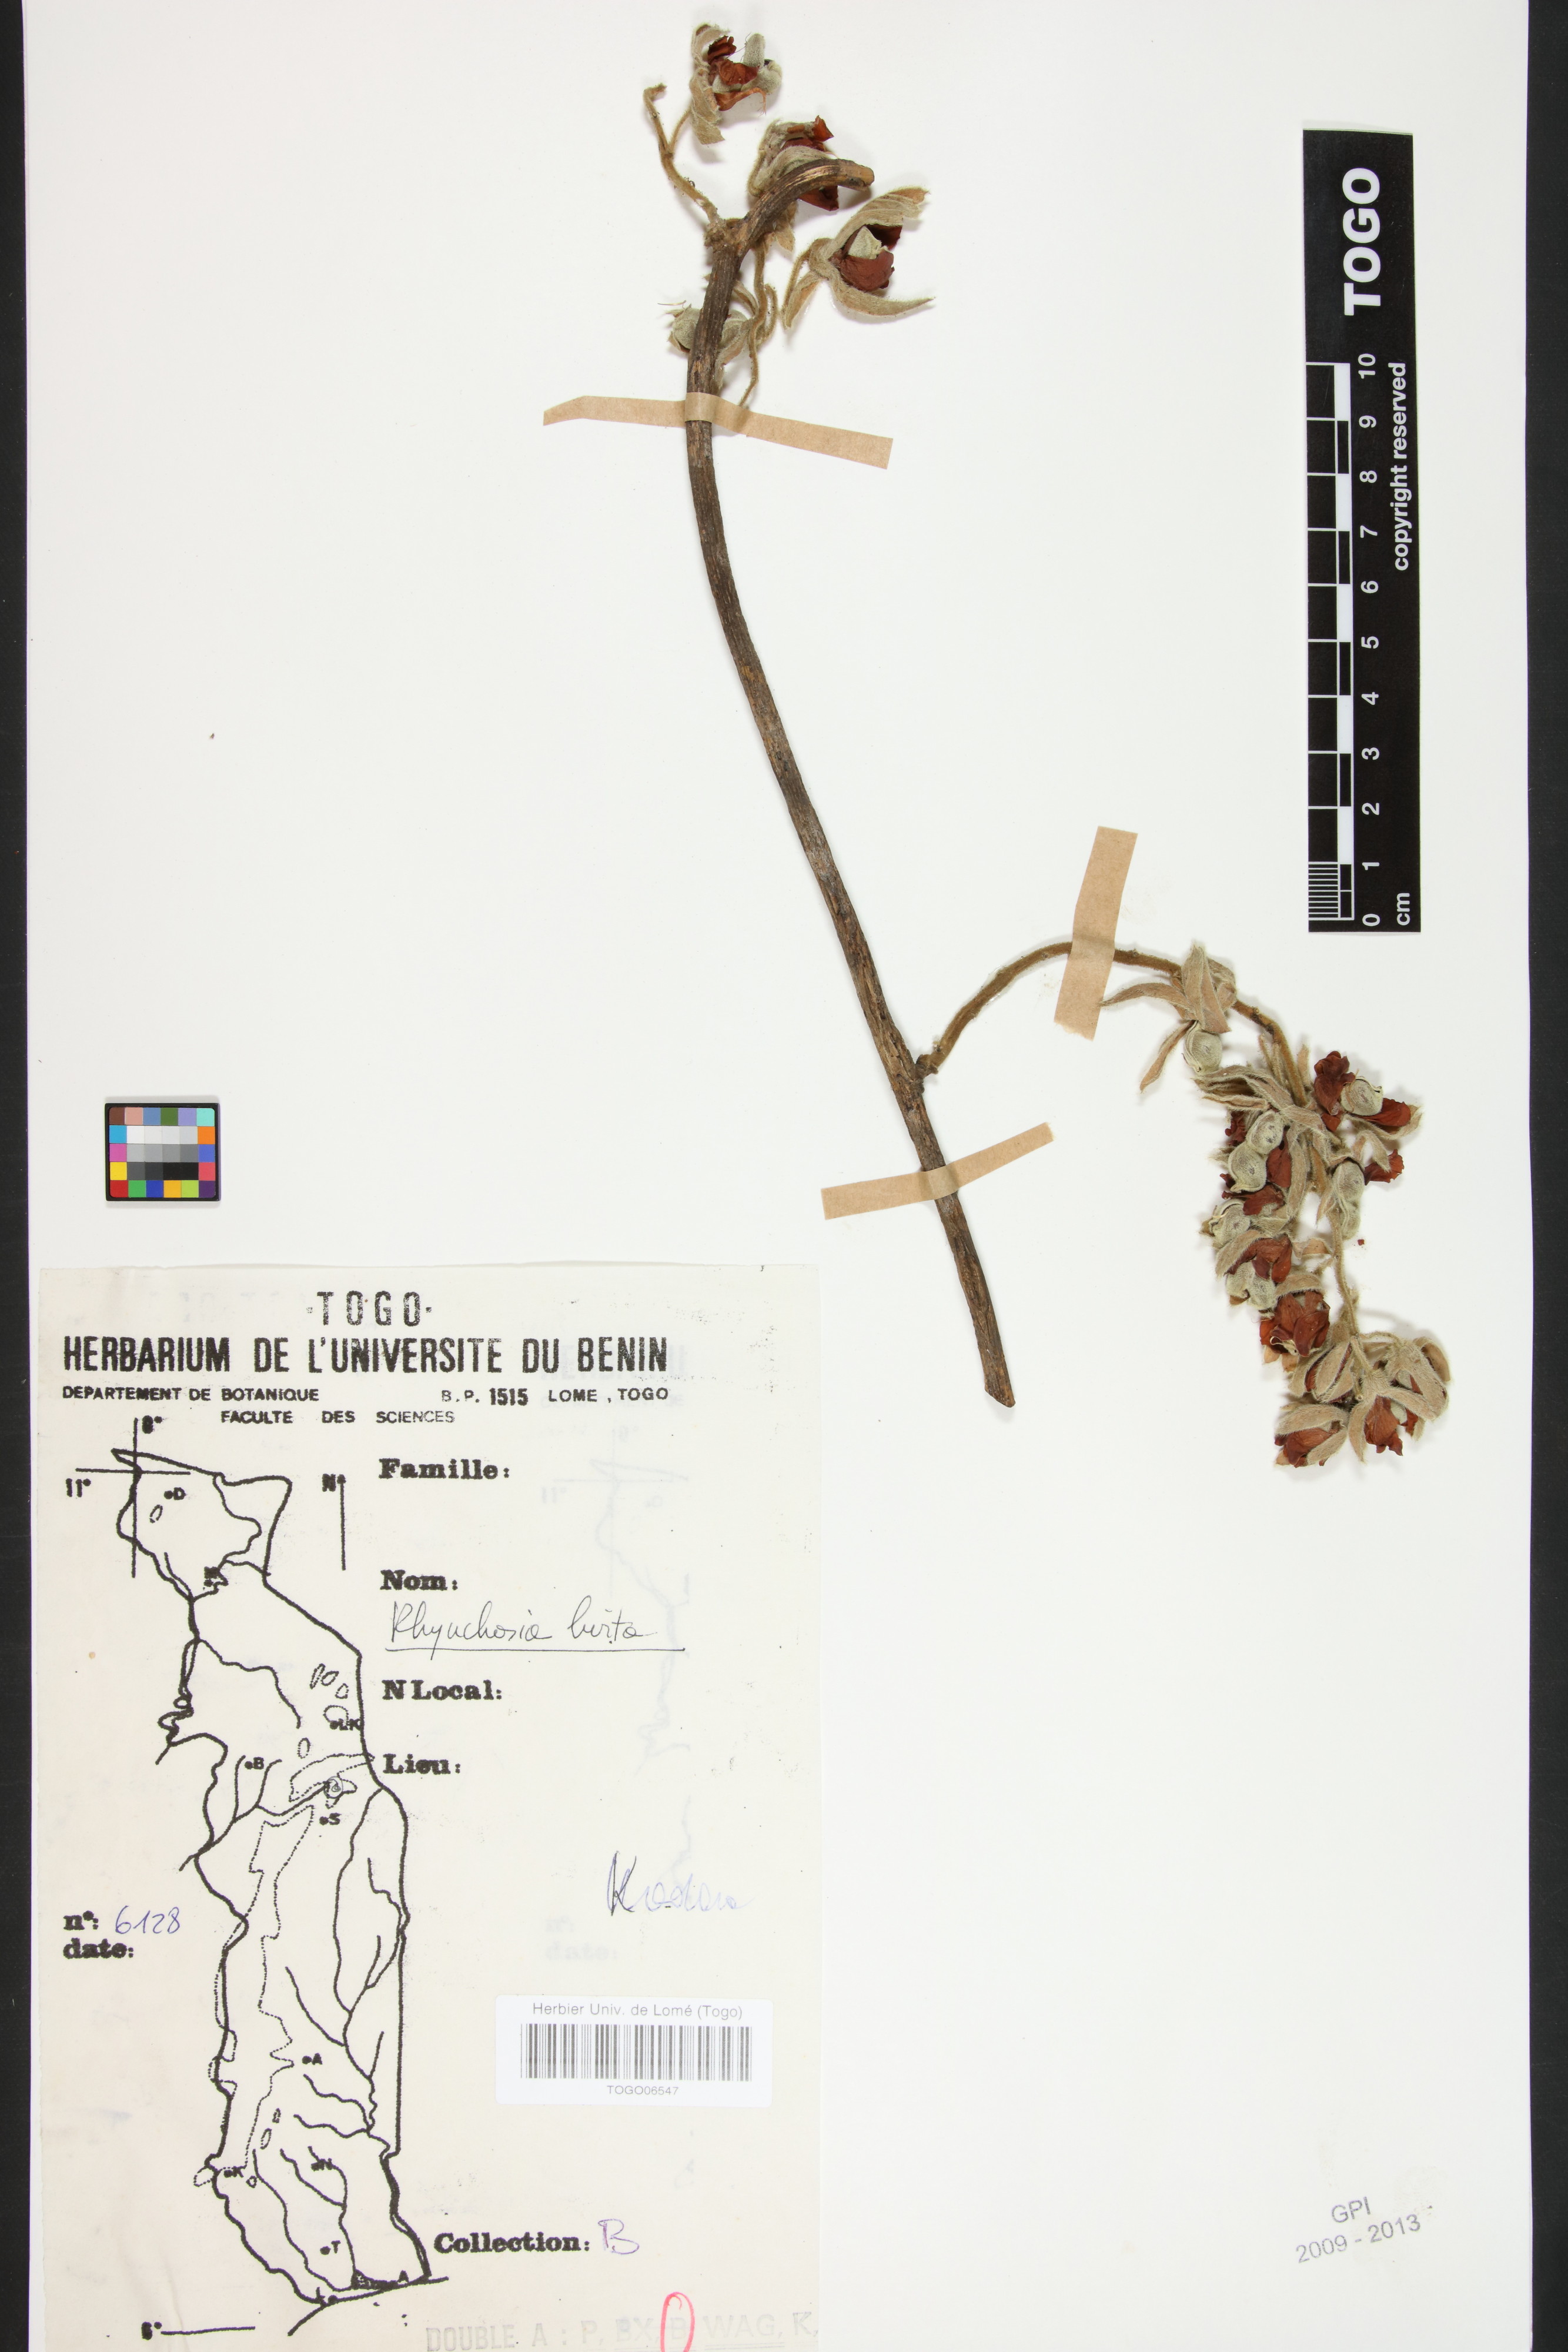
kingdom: Plantae
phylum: Tracheophyta
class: Magnoliopsida
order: Fabales
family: Fabaceae
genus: Rhynchosia
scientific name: Rhynchosia hirta
